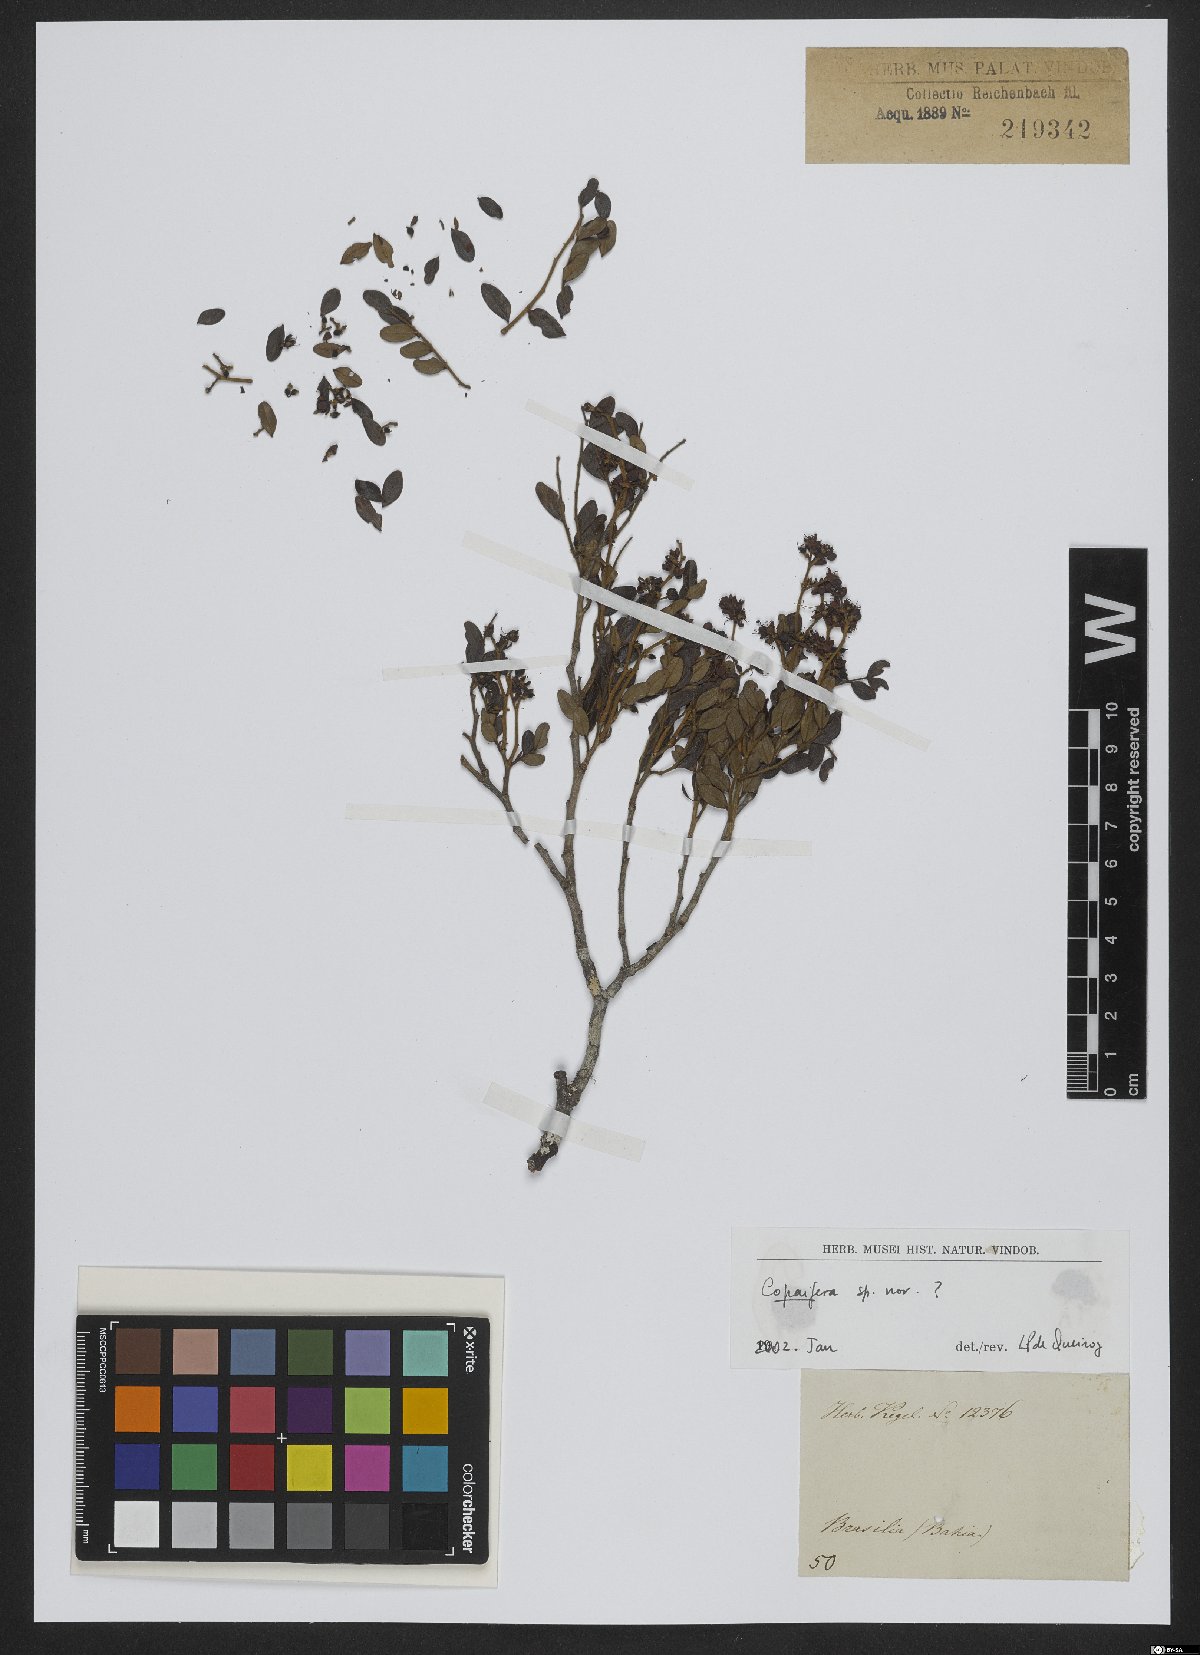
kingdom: Plantae
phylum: Tracheophyta
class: Magnoliopsida
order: Fabales
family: Fabaceae
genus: Copaifera
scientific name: Copaifera
